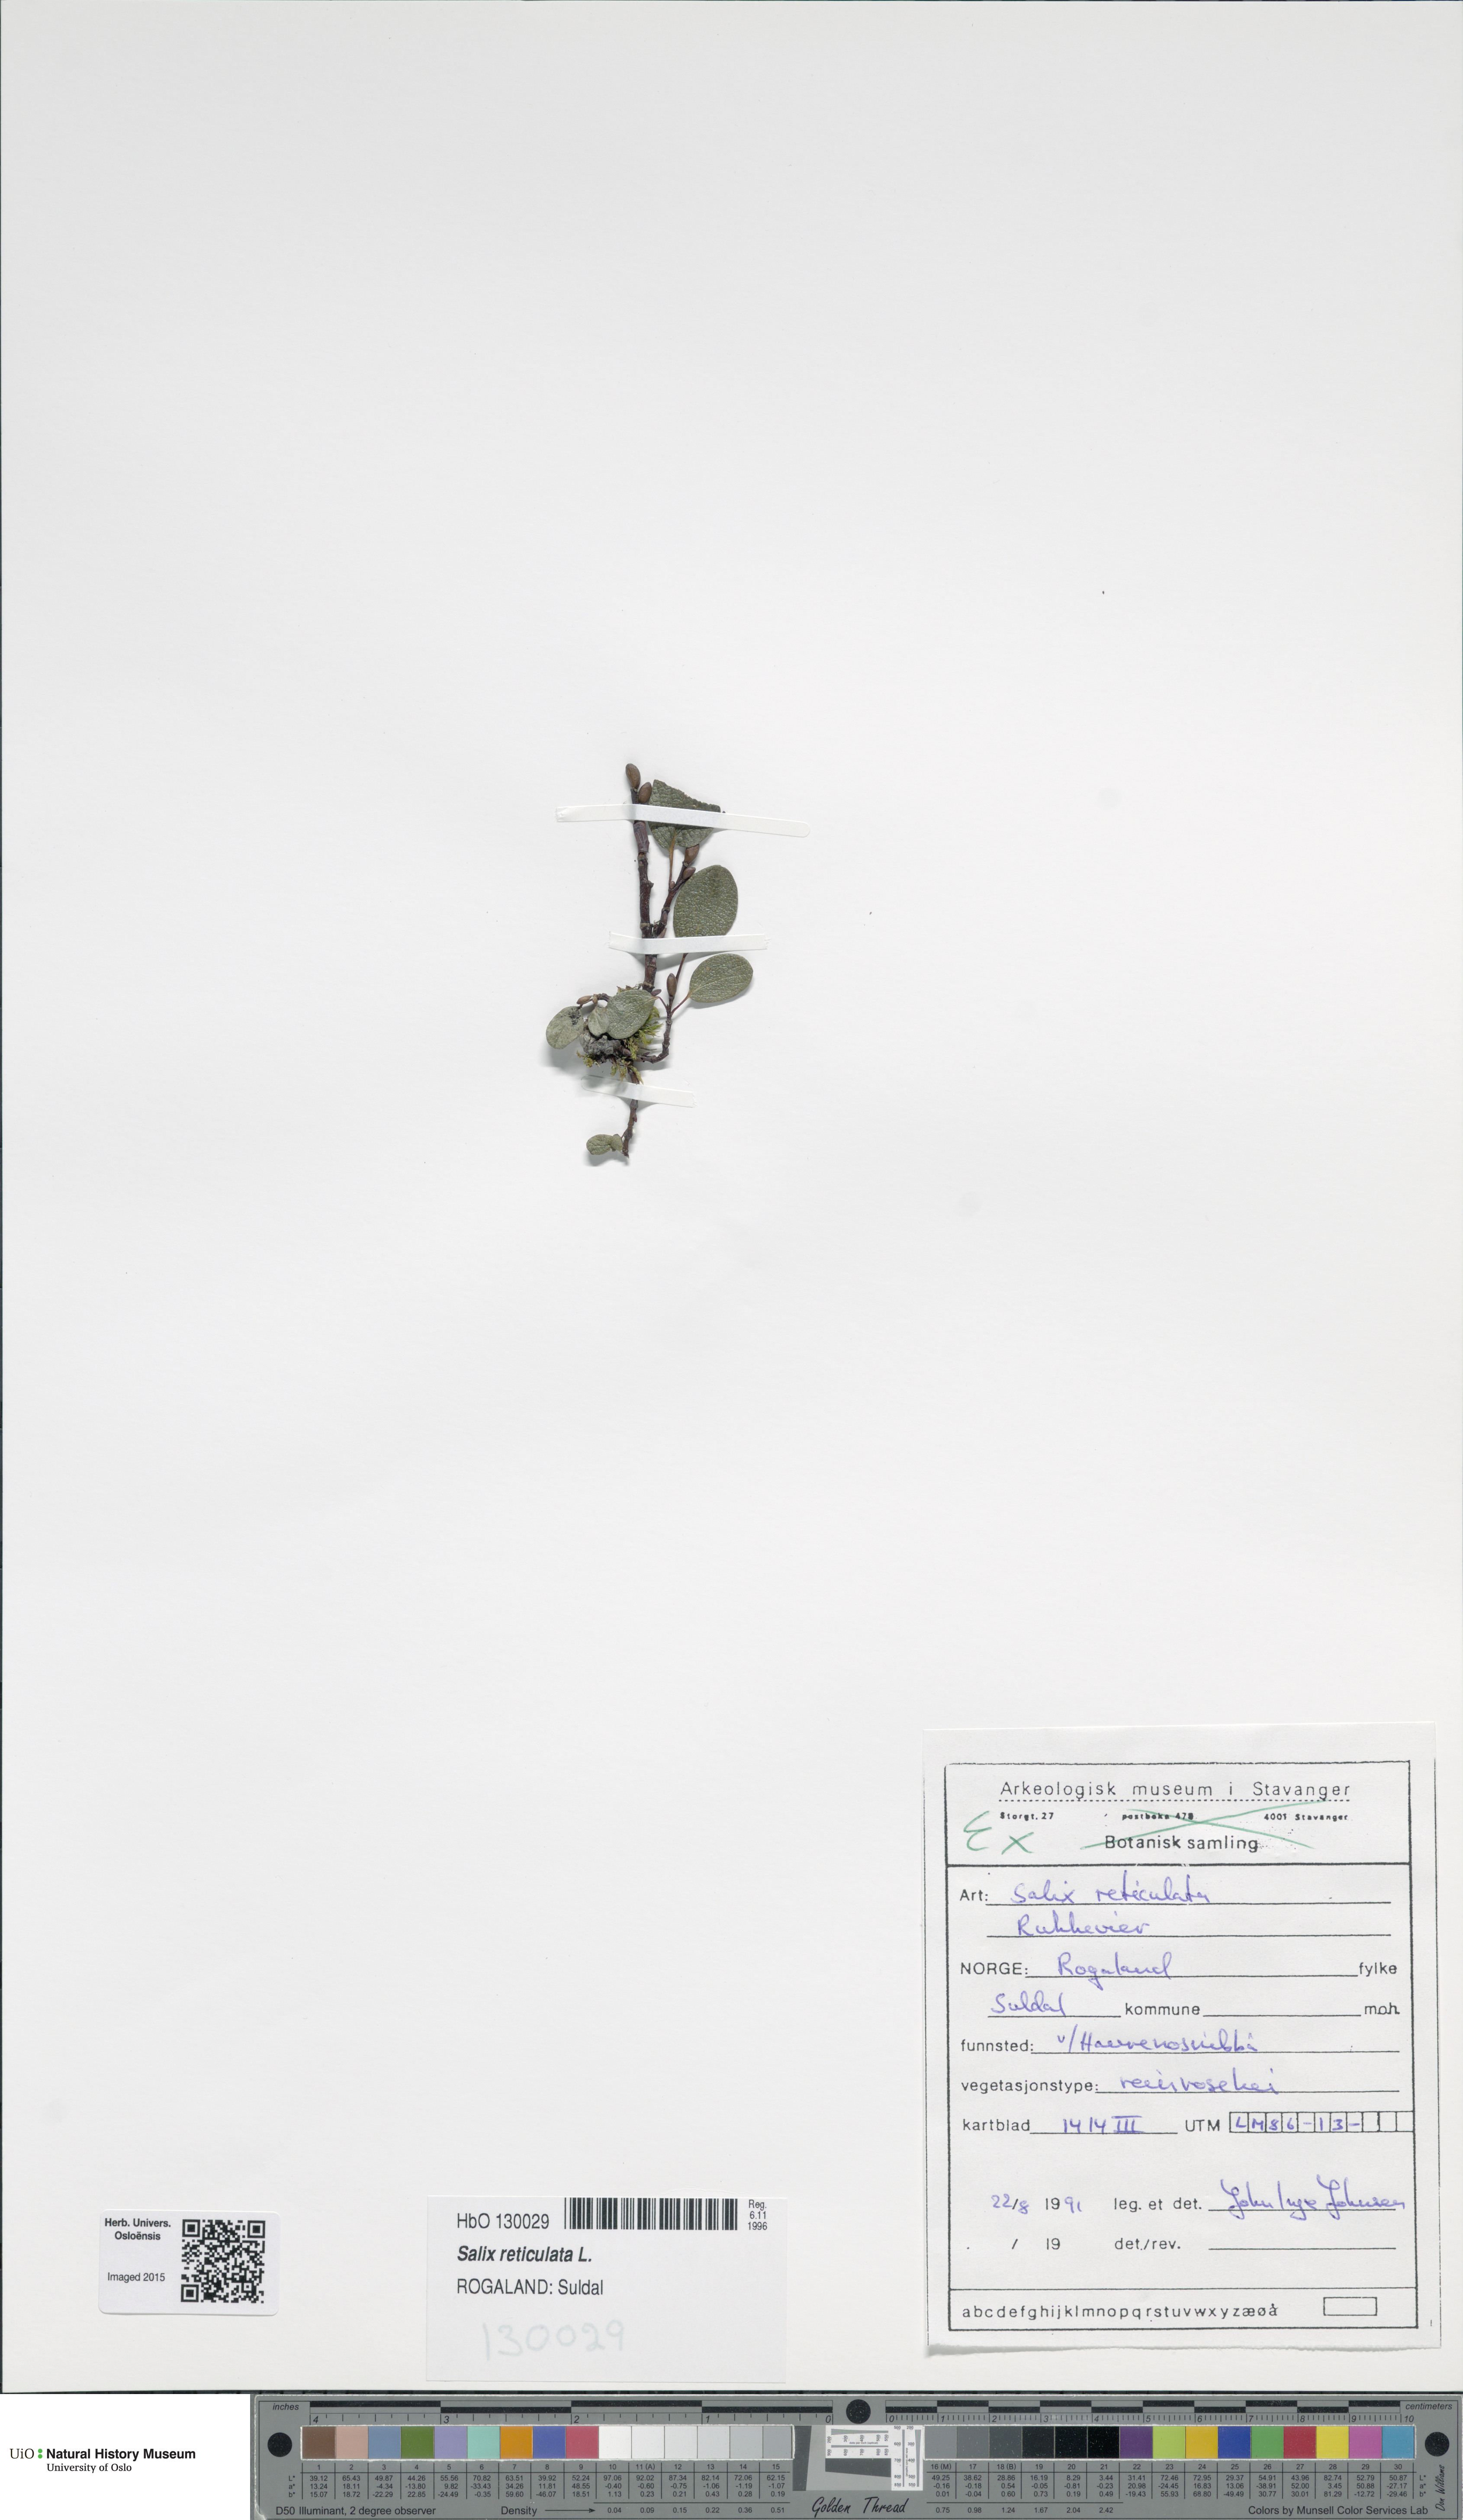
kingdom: Plantae
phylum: Tracheophyta
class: Magnoliopsida
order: Malpighiales
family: Salicaceae
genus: Salix
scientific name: Salix reticulata
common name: Net-leaved willow
